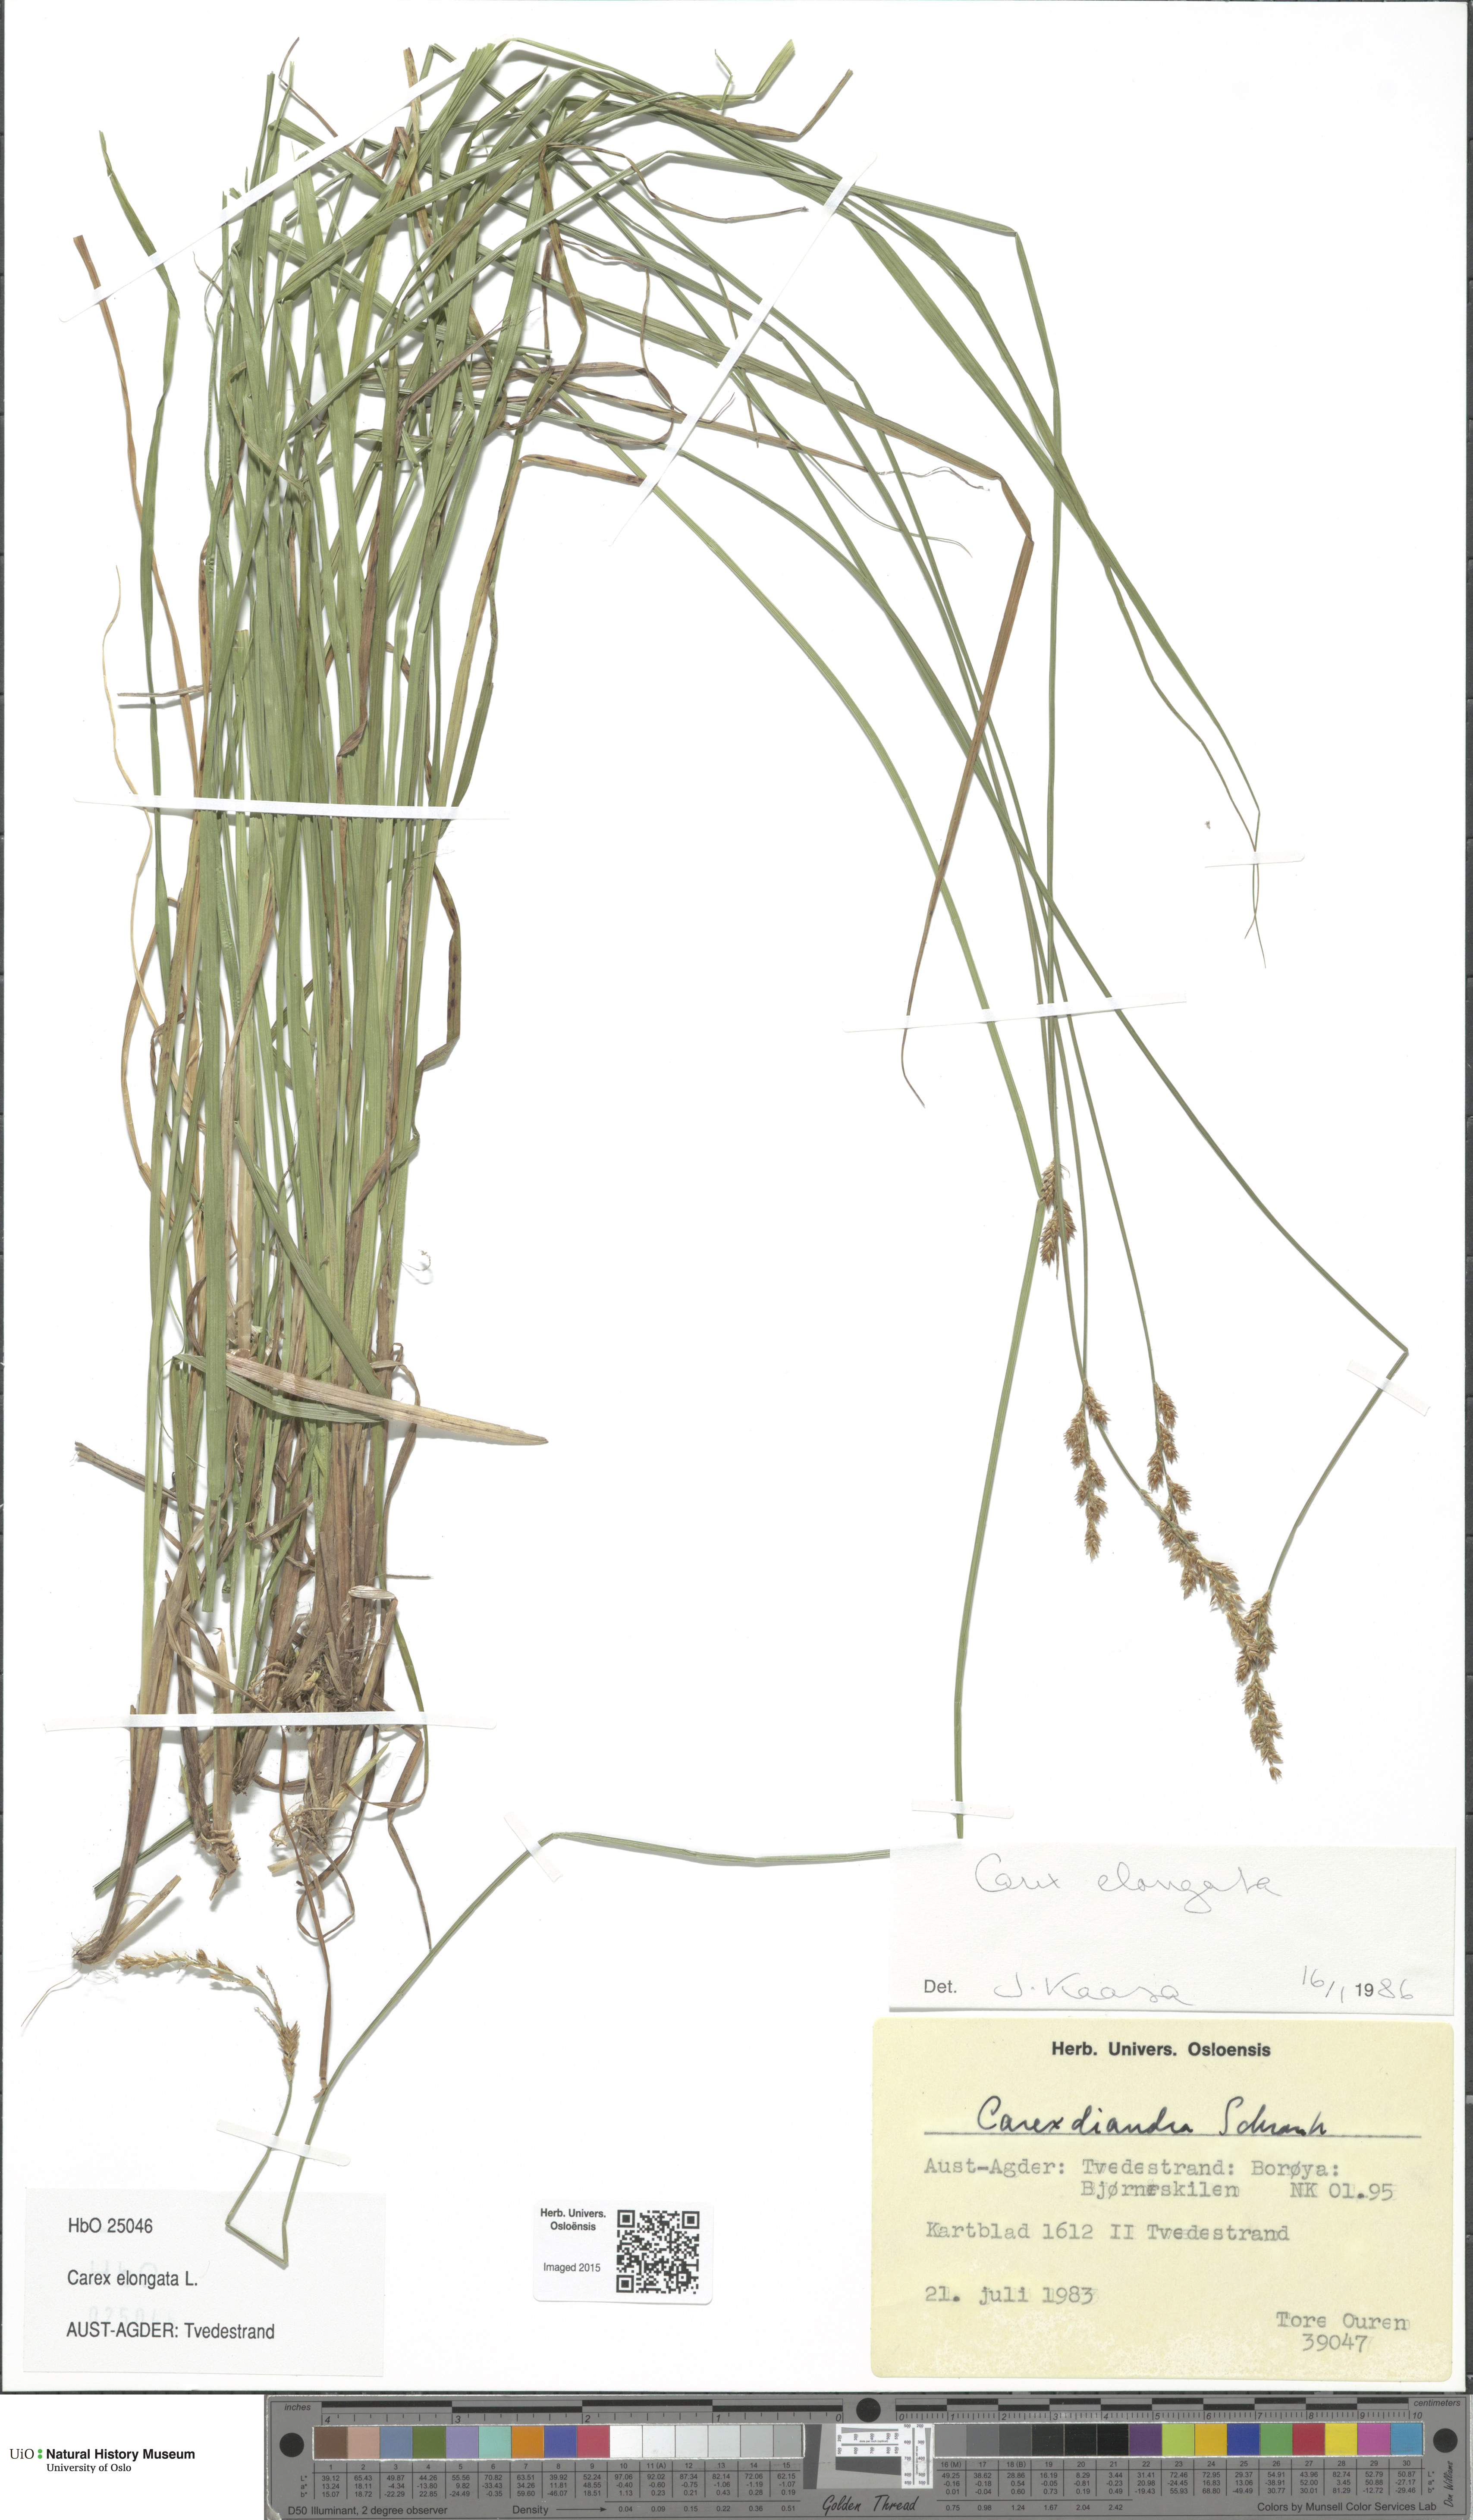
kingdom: Plantae
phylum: Tracheophyta
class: Liliopsida
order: Poales
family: Cyperaceae
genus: Carex
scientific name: Carex elongata
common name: Elongated sedge
